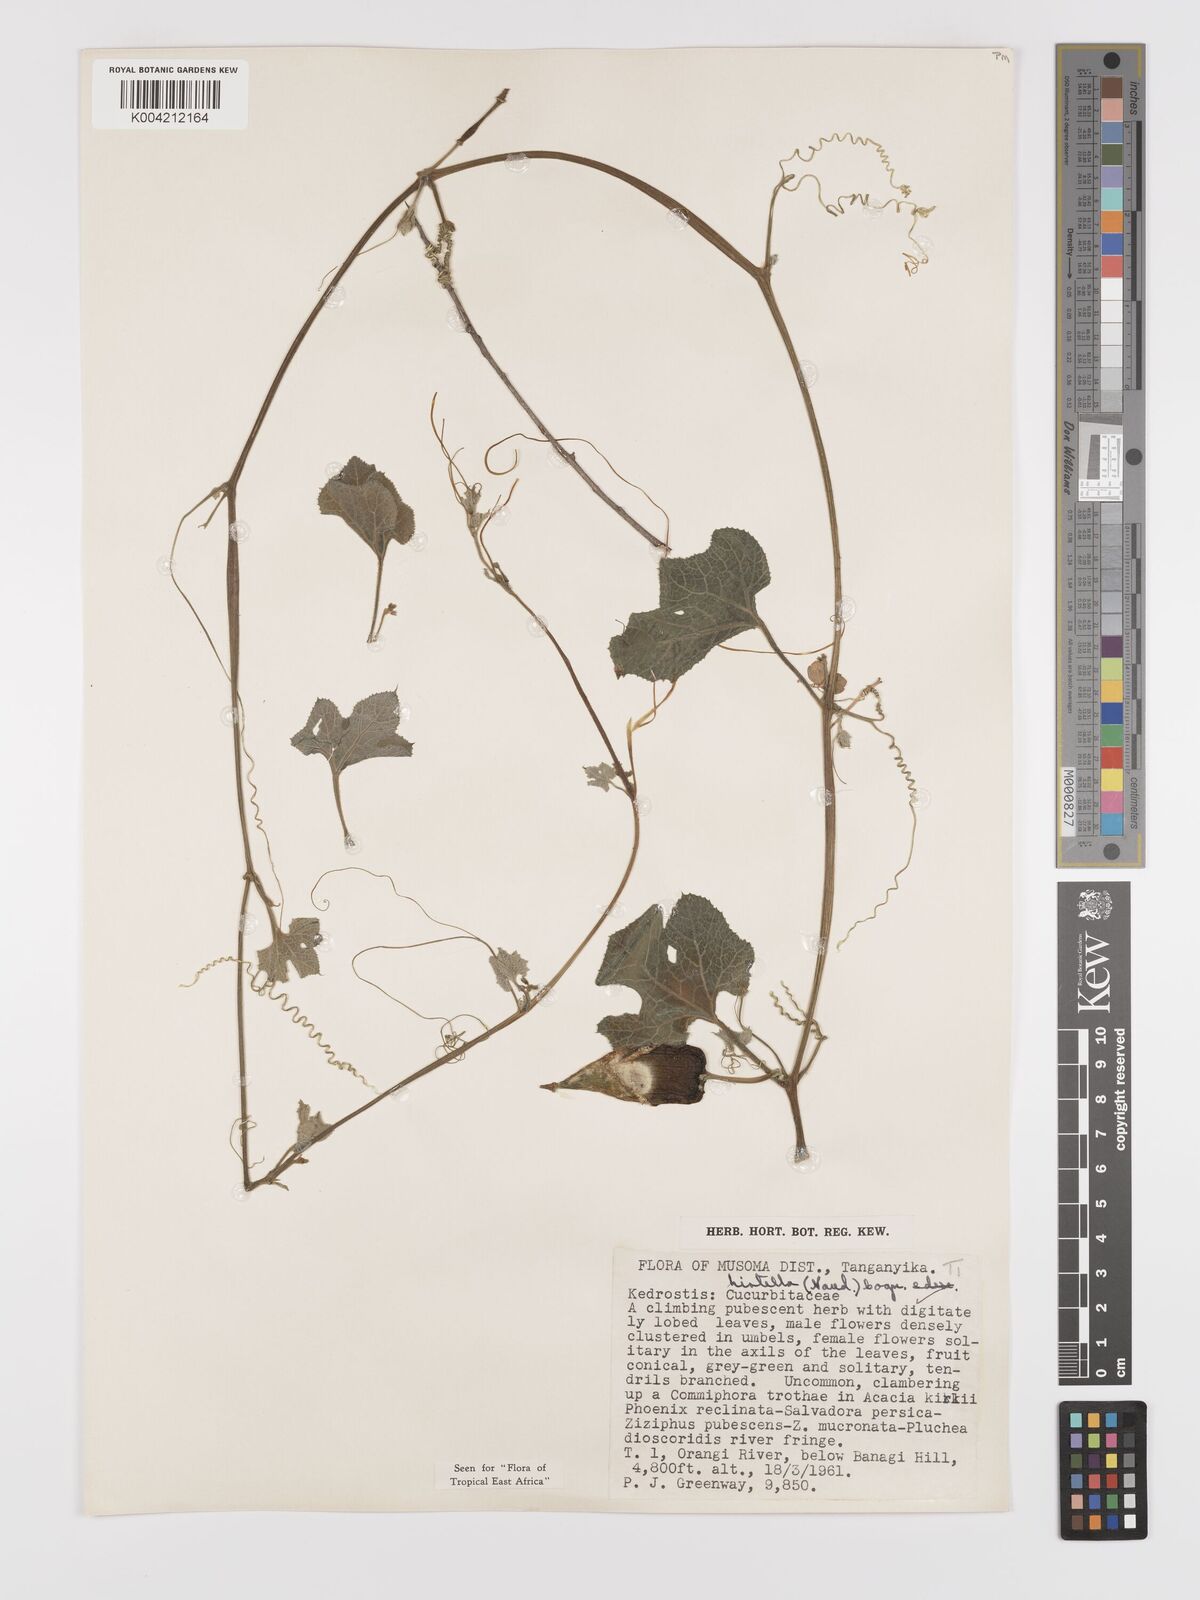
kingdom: Plantae
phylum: Tracheophyta
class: Magnoliopsida
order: Cucurbitales
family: Cucurbitaceae
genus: Kedrostis
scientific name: Kedrostis leloja
